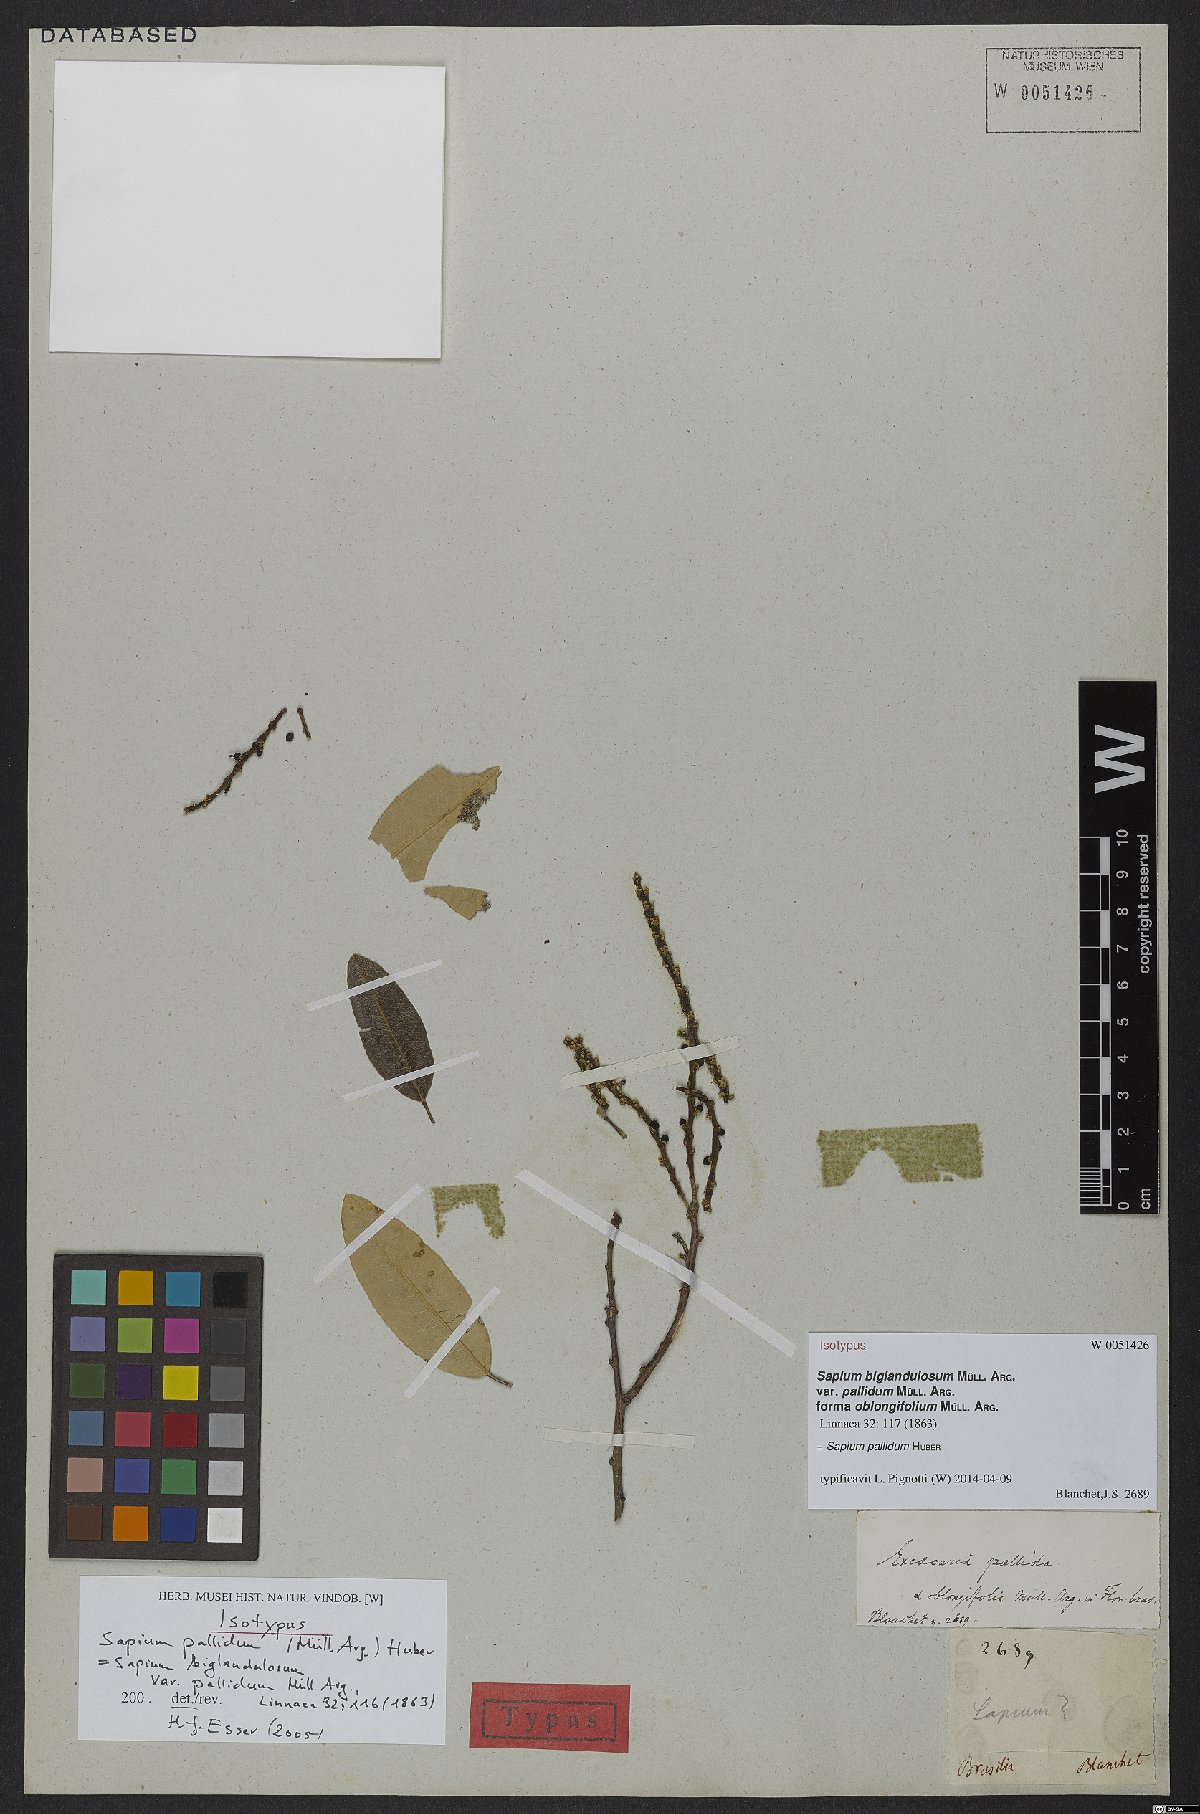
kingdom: Plantae
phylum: Tracheophyta
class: Magnoliopsida
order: Malpighiales
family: Euphorbiaceae
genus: Sapium
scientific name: Sapium pallidum
